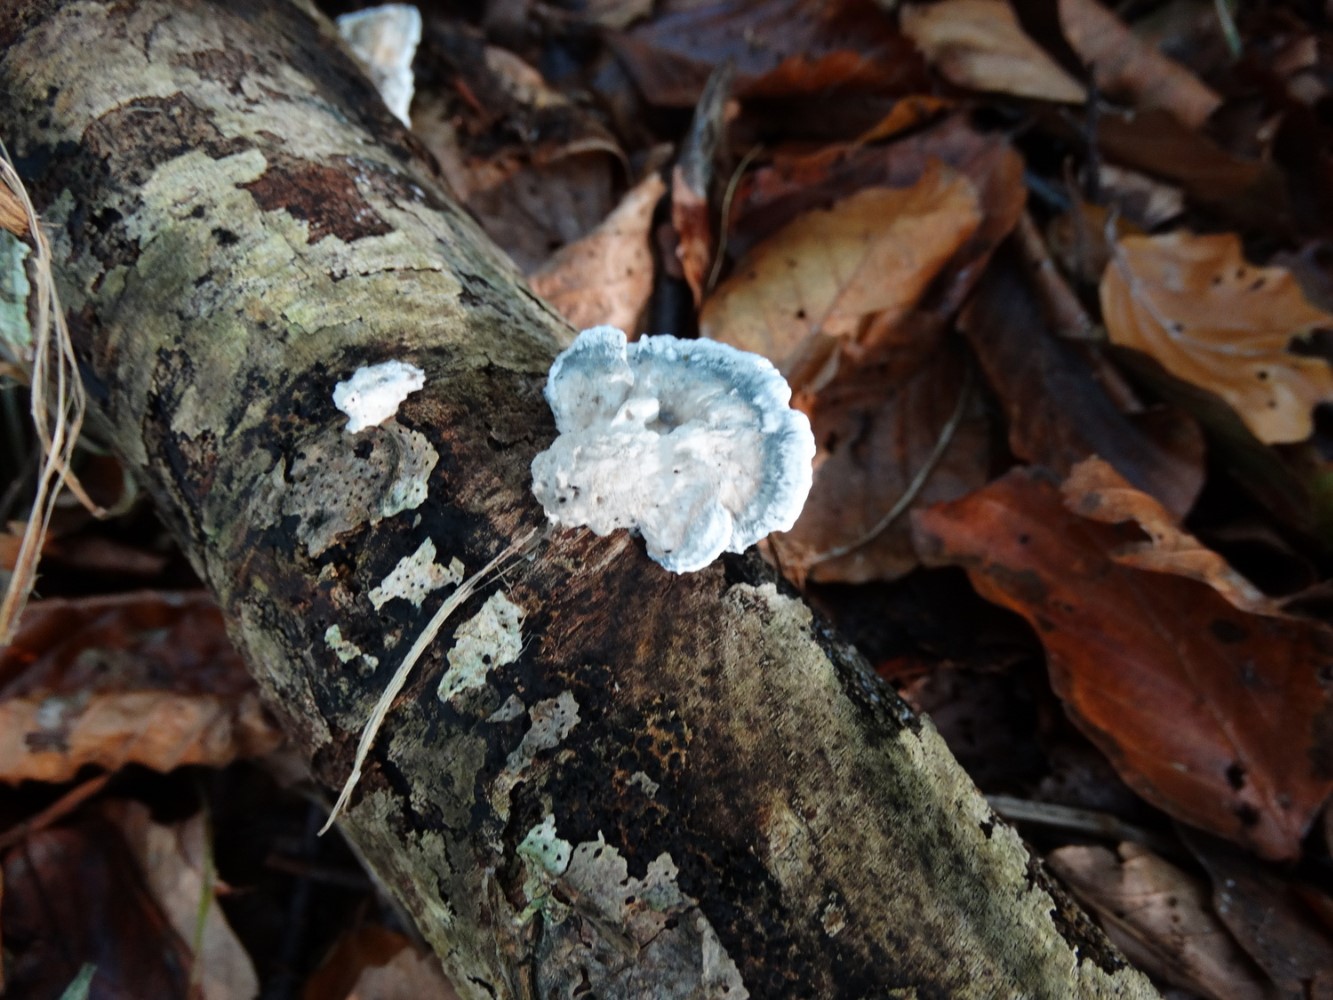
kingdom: Fungi
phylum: Basidiomycota
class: Agaricomycetes
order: Polyporales
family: Polyporaceae
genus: Cyanosporus
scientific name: Cyanosporus alni
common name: blegblå kødporesvamp
